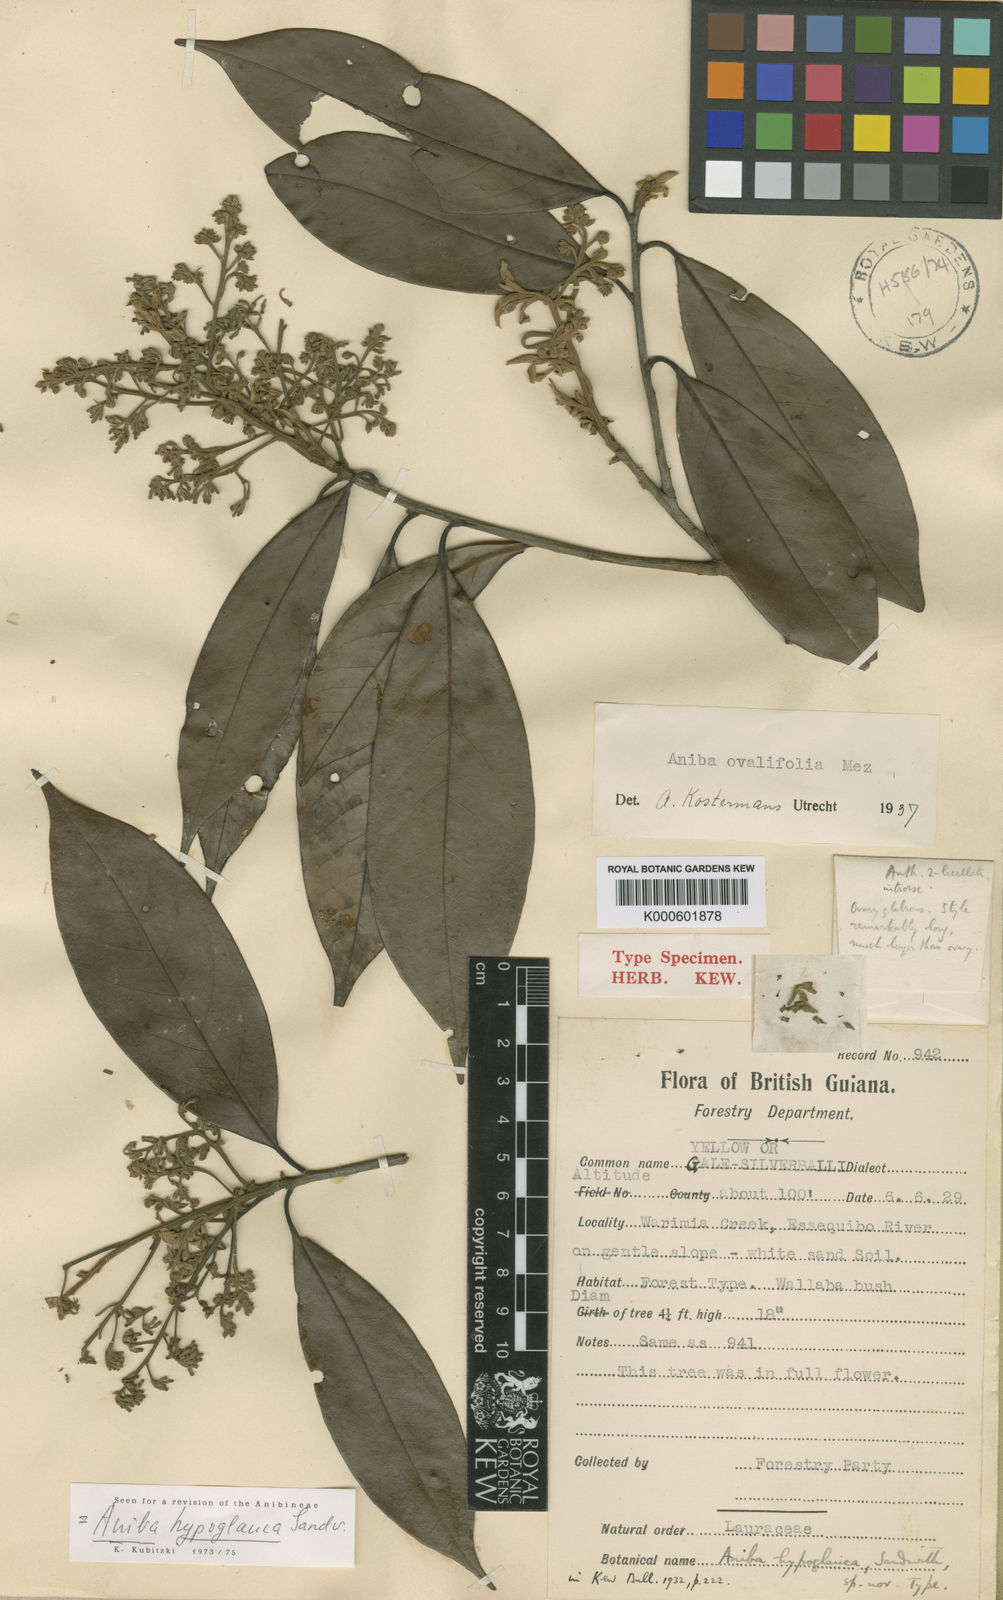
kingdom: Plantae
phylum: Tracheophyta
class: Magnoliopsida
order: Laurales
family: Lauraceae
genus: Aniba
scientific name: Aniba hypoglauca
